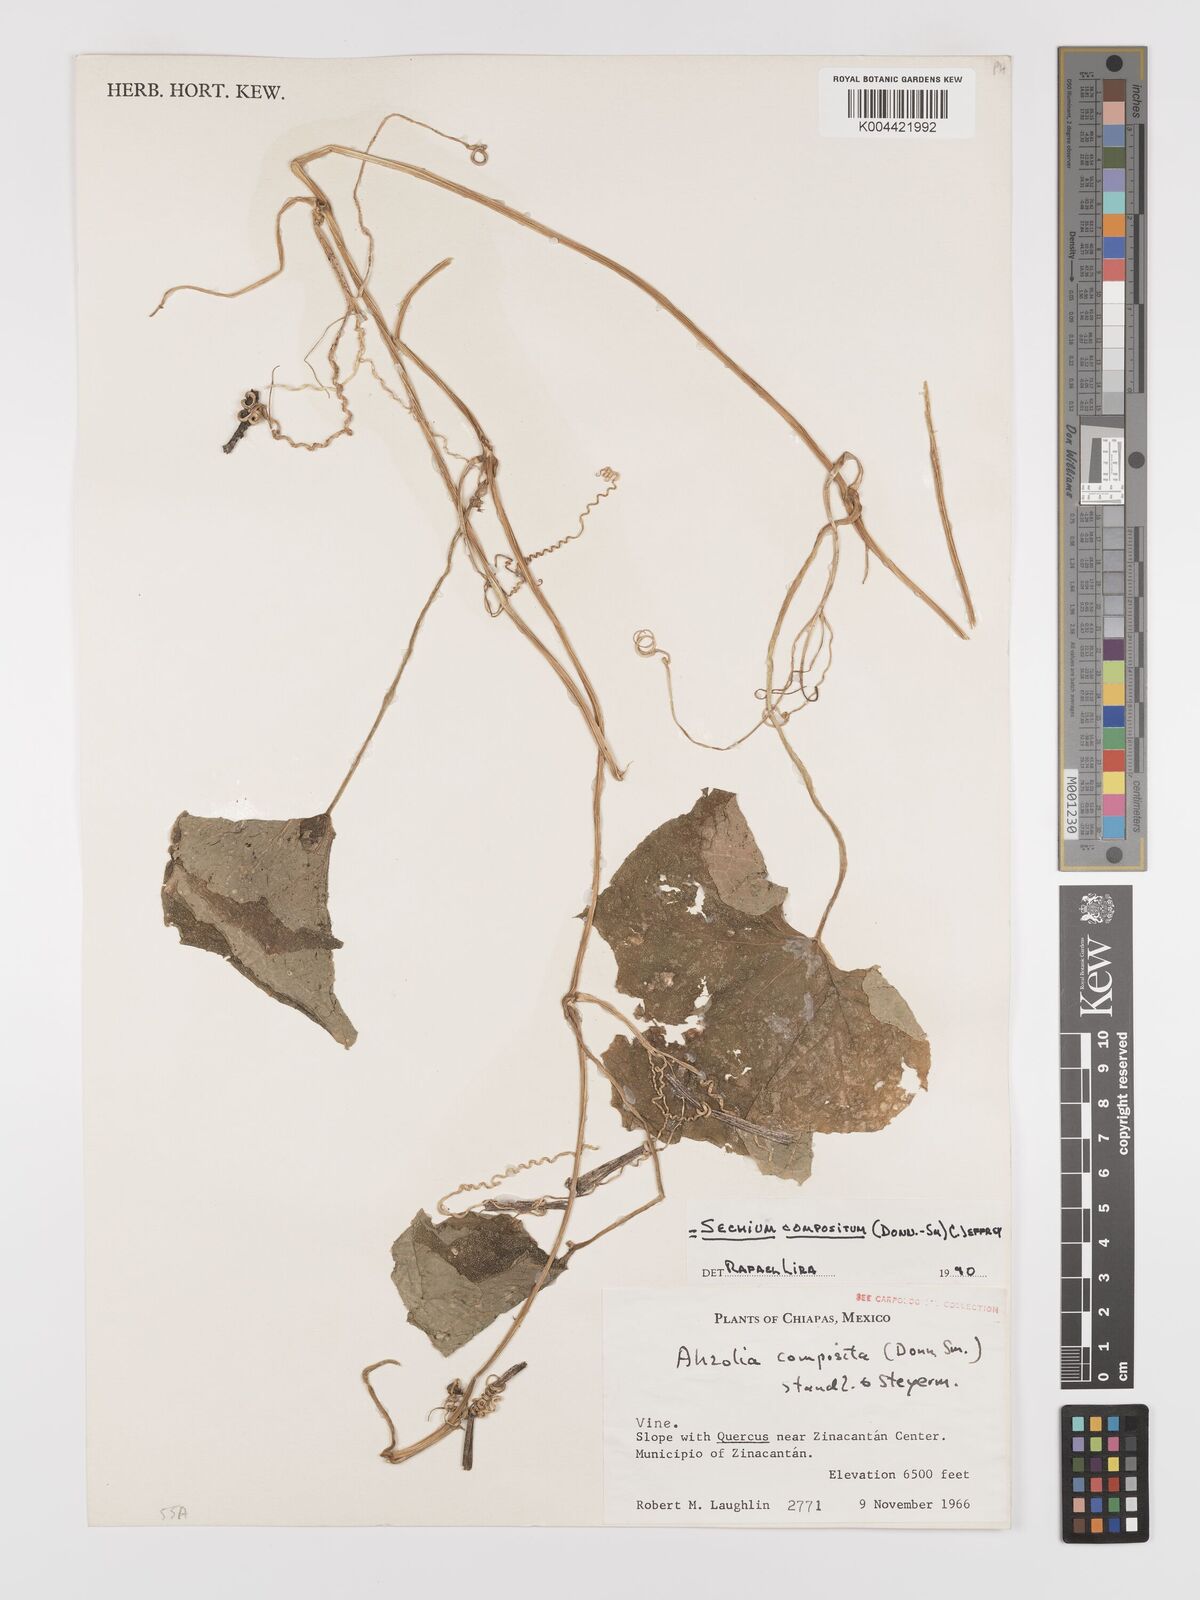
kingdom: Plantae
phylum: Tracheophyta
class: Magnoliopsida
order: Cucurbitales
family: Cucurbitaceae
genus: Sechium
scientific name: Sechium compositum
